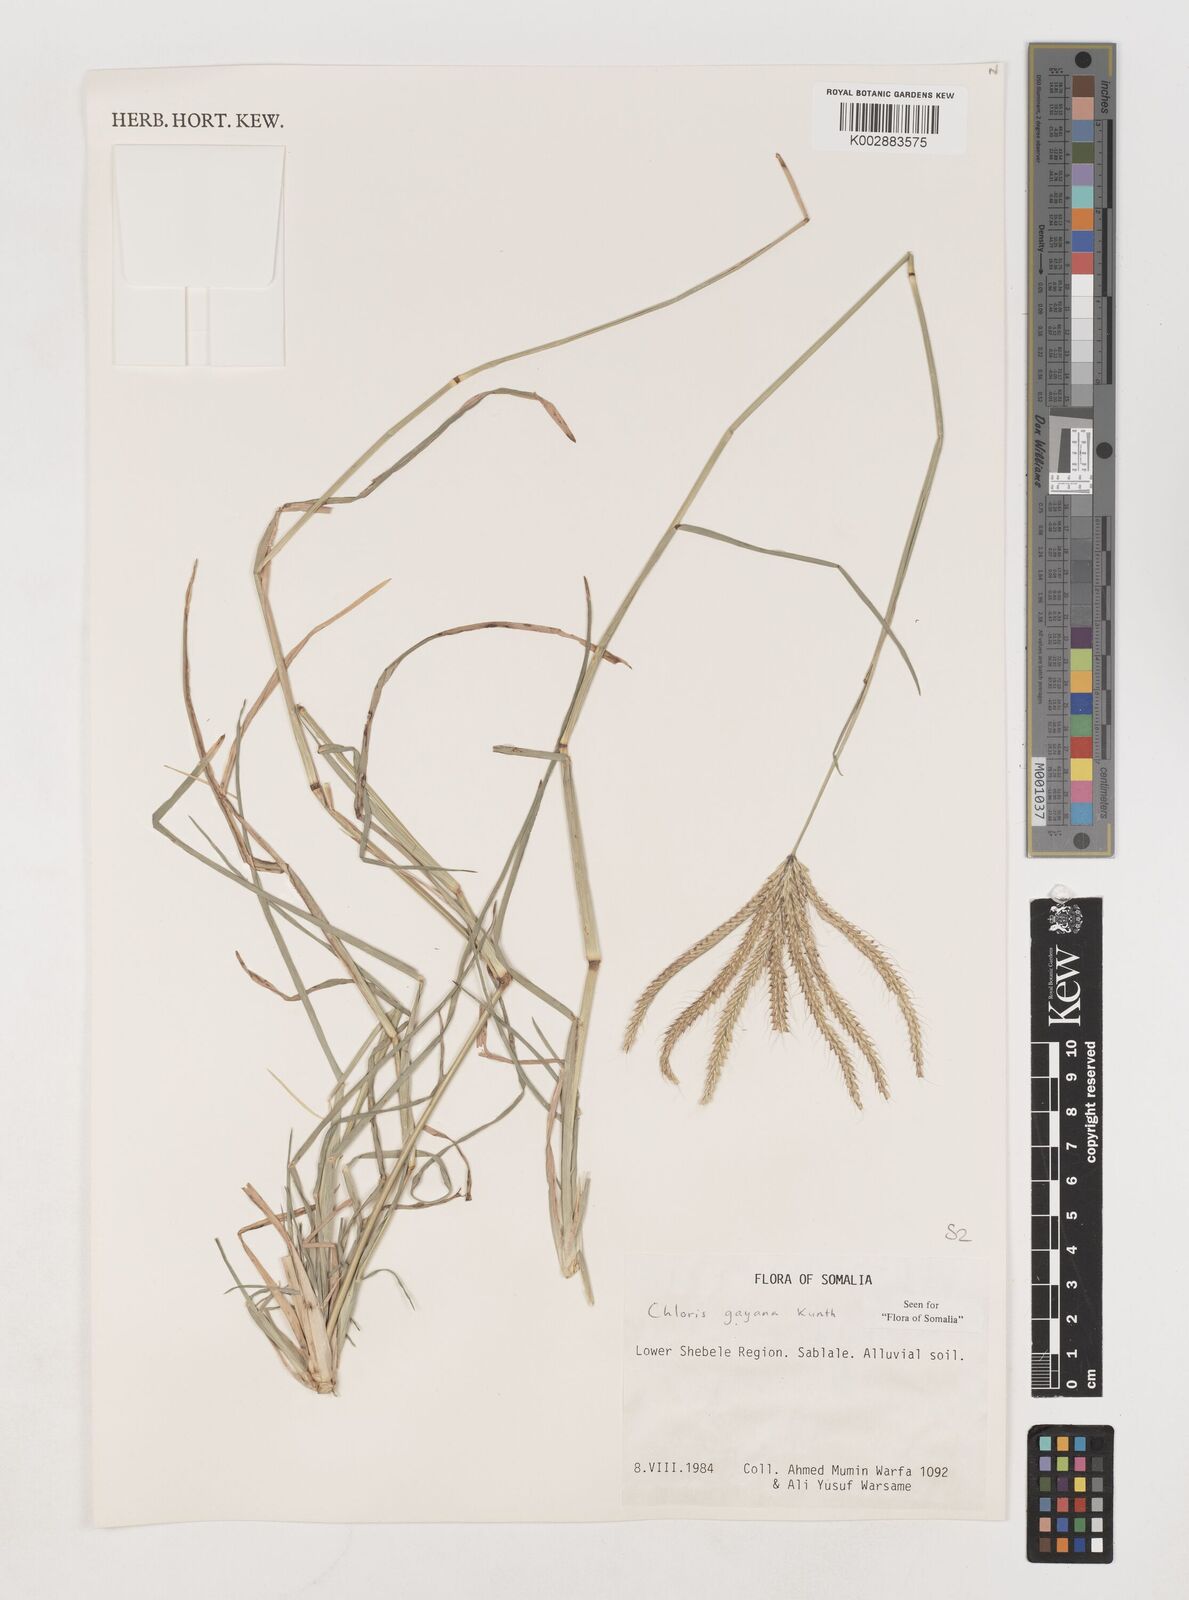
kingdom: Plantae
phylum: Tracheophyta
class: Liliopsida
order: Poales
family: Poaceae
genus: Chloris
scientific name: Chloris gayana
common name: Rhodes grass
